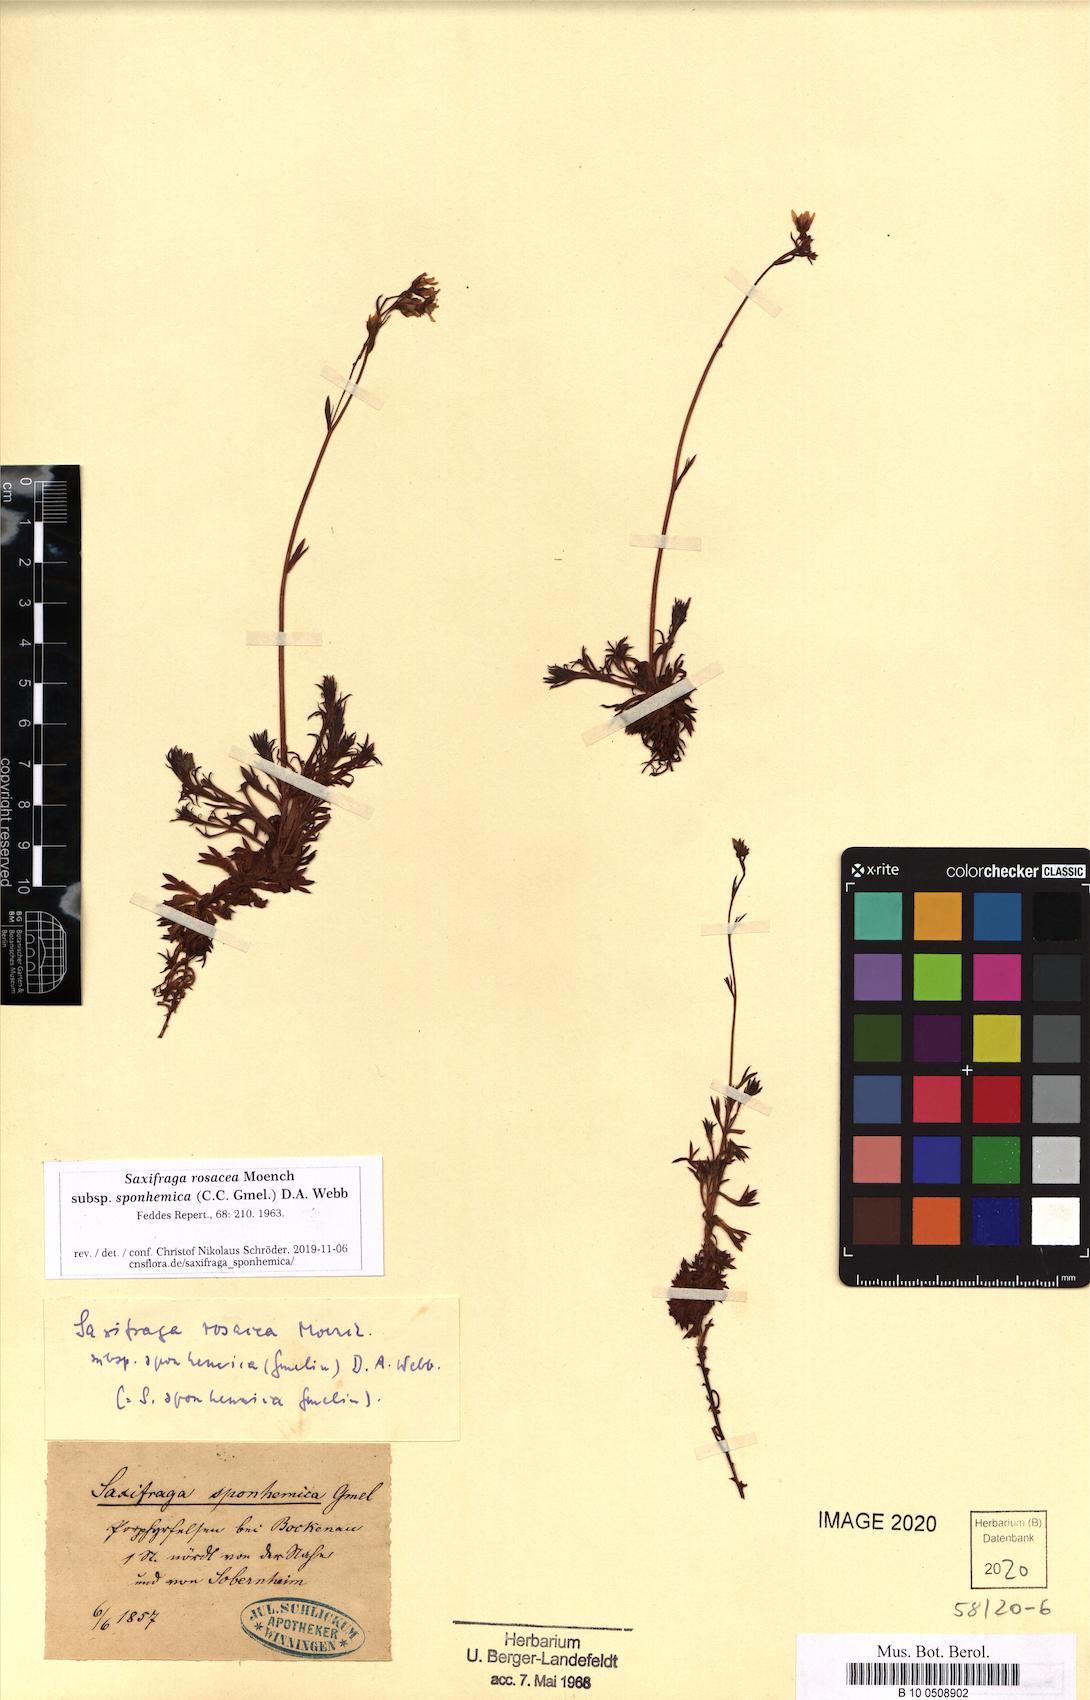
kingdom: Plantae
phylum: Tracheophyta
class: Magnoliopsida
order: Saxifragales
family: Saxifragaceae
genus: Saxifraga
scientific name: Saxifraga rosacea
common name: Irish saxifrage
